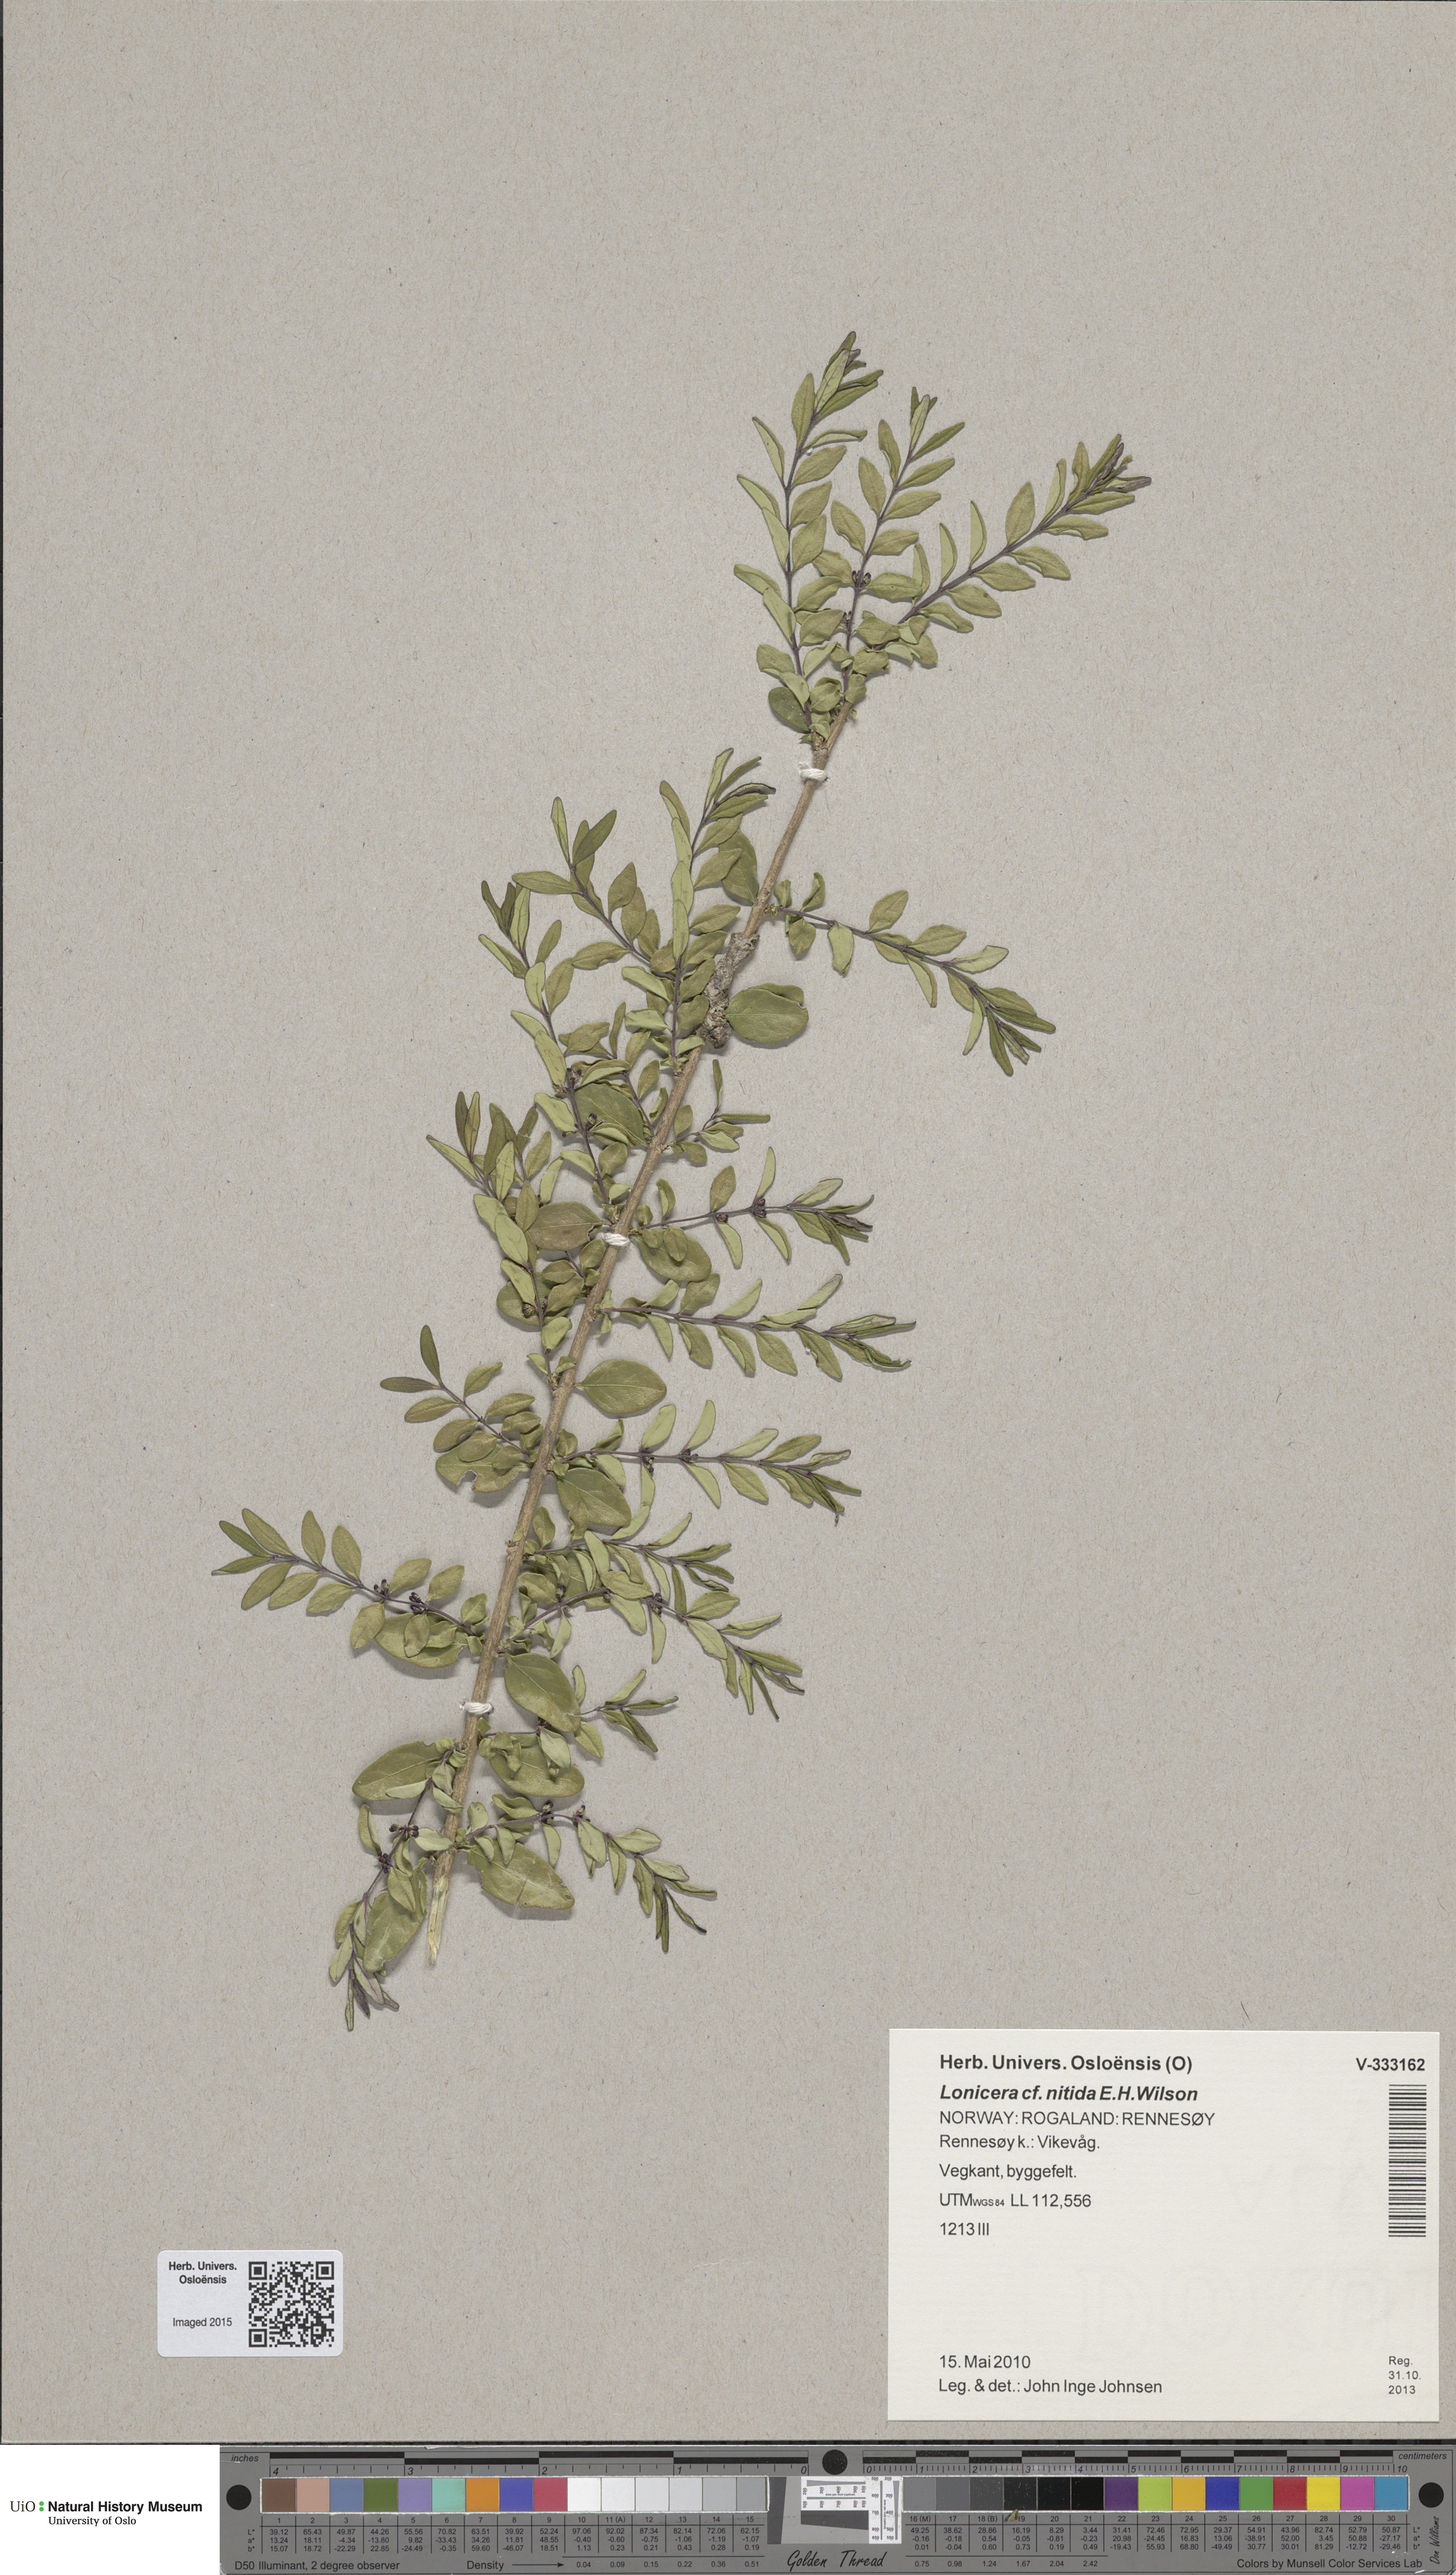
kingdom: Plantae
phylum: Tracheophyta
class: Magnoliopsida
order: Dipsacales
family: Caprifoliaceae
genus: Lonicera
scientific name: Lonicera pileata
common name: Box-leaved honeysuckle
